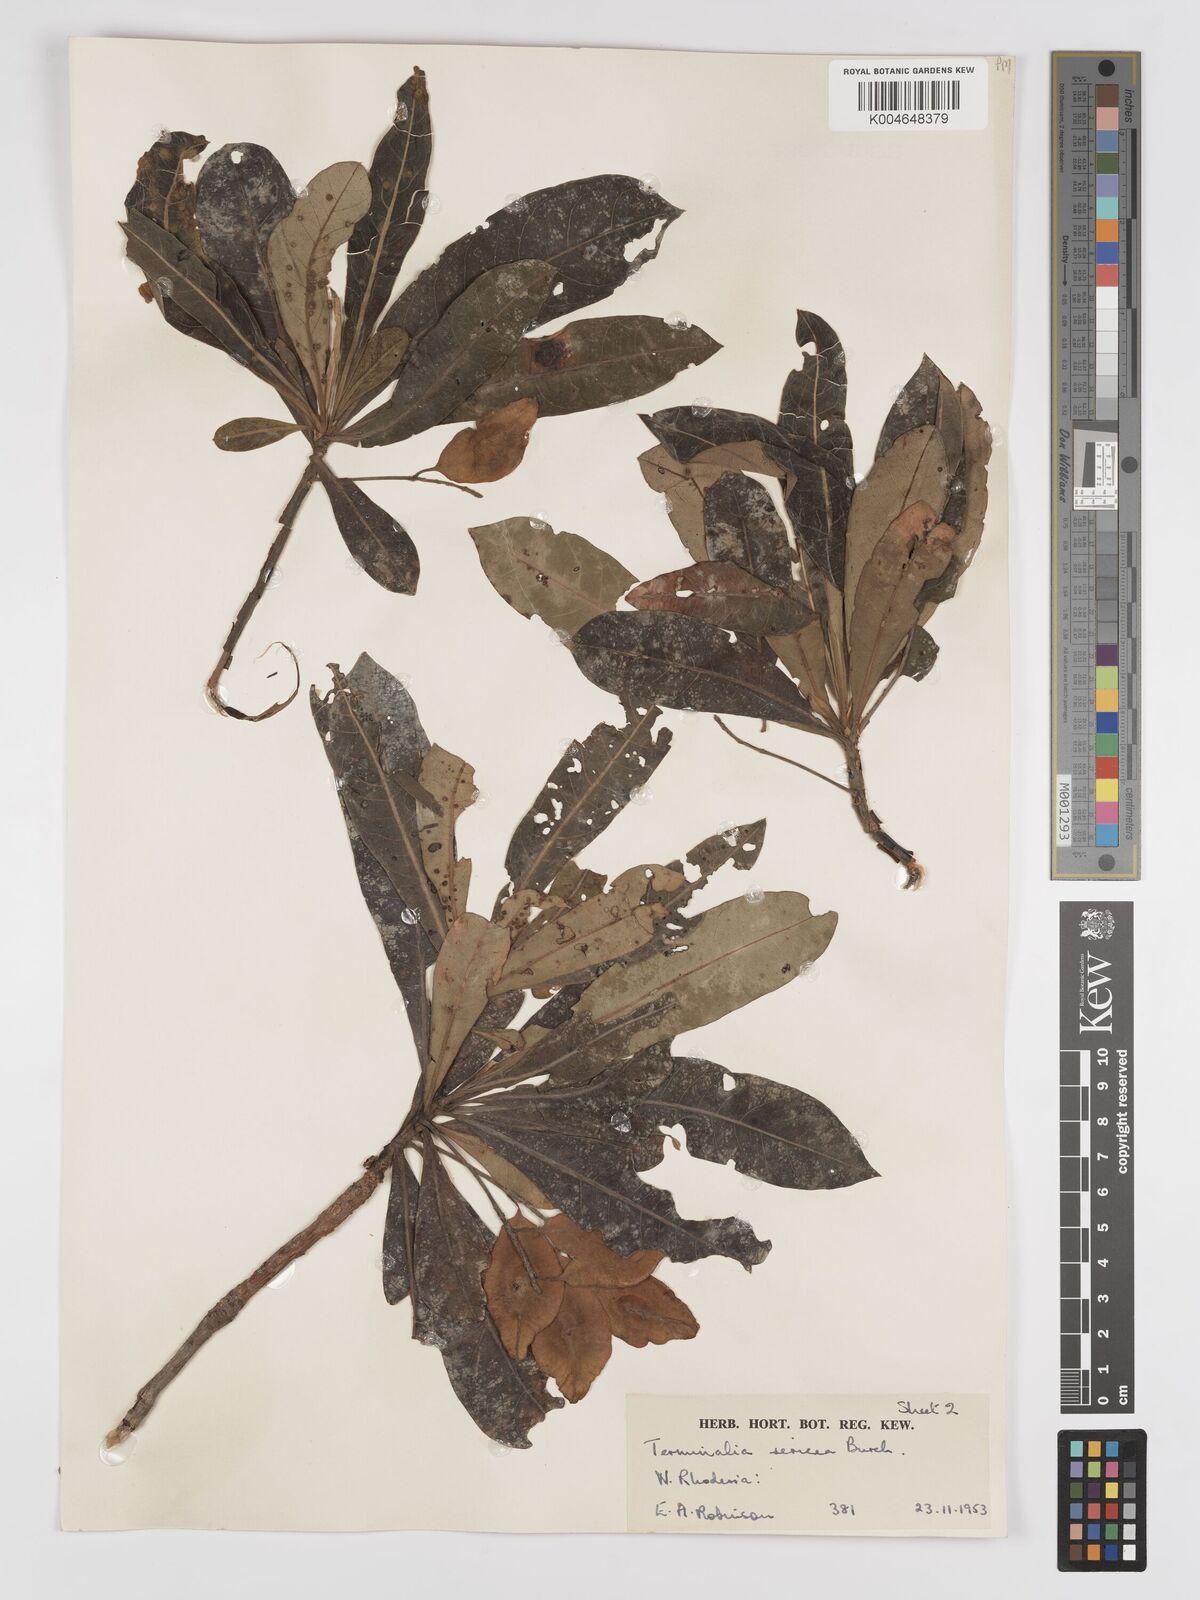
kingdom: Plantae
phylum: Tracheophyta
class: Magnoliopsida
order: Myrtales
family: Combretaceae
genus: Terminalia
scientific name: Terminalia
